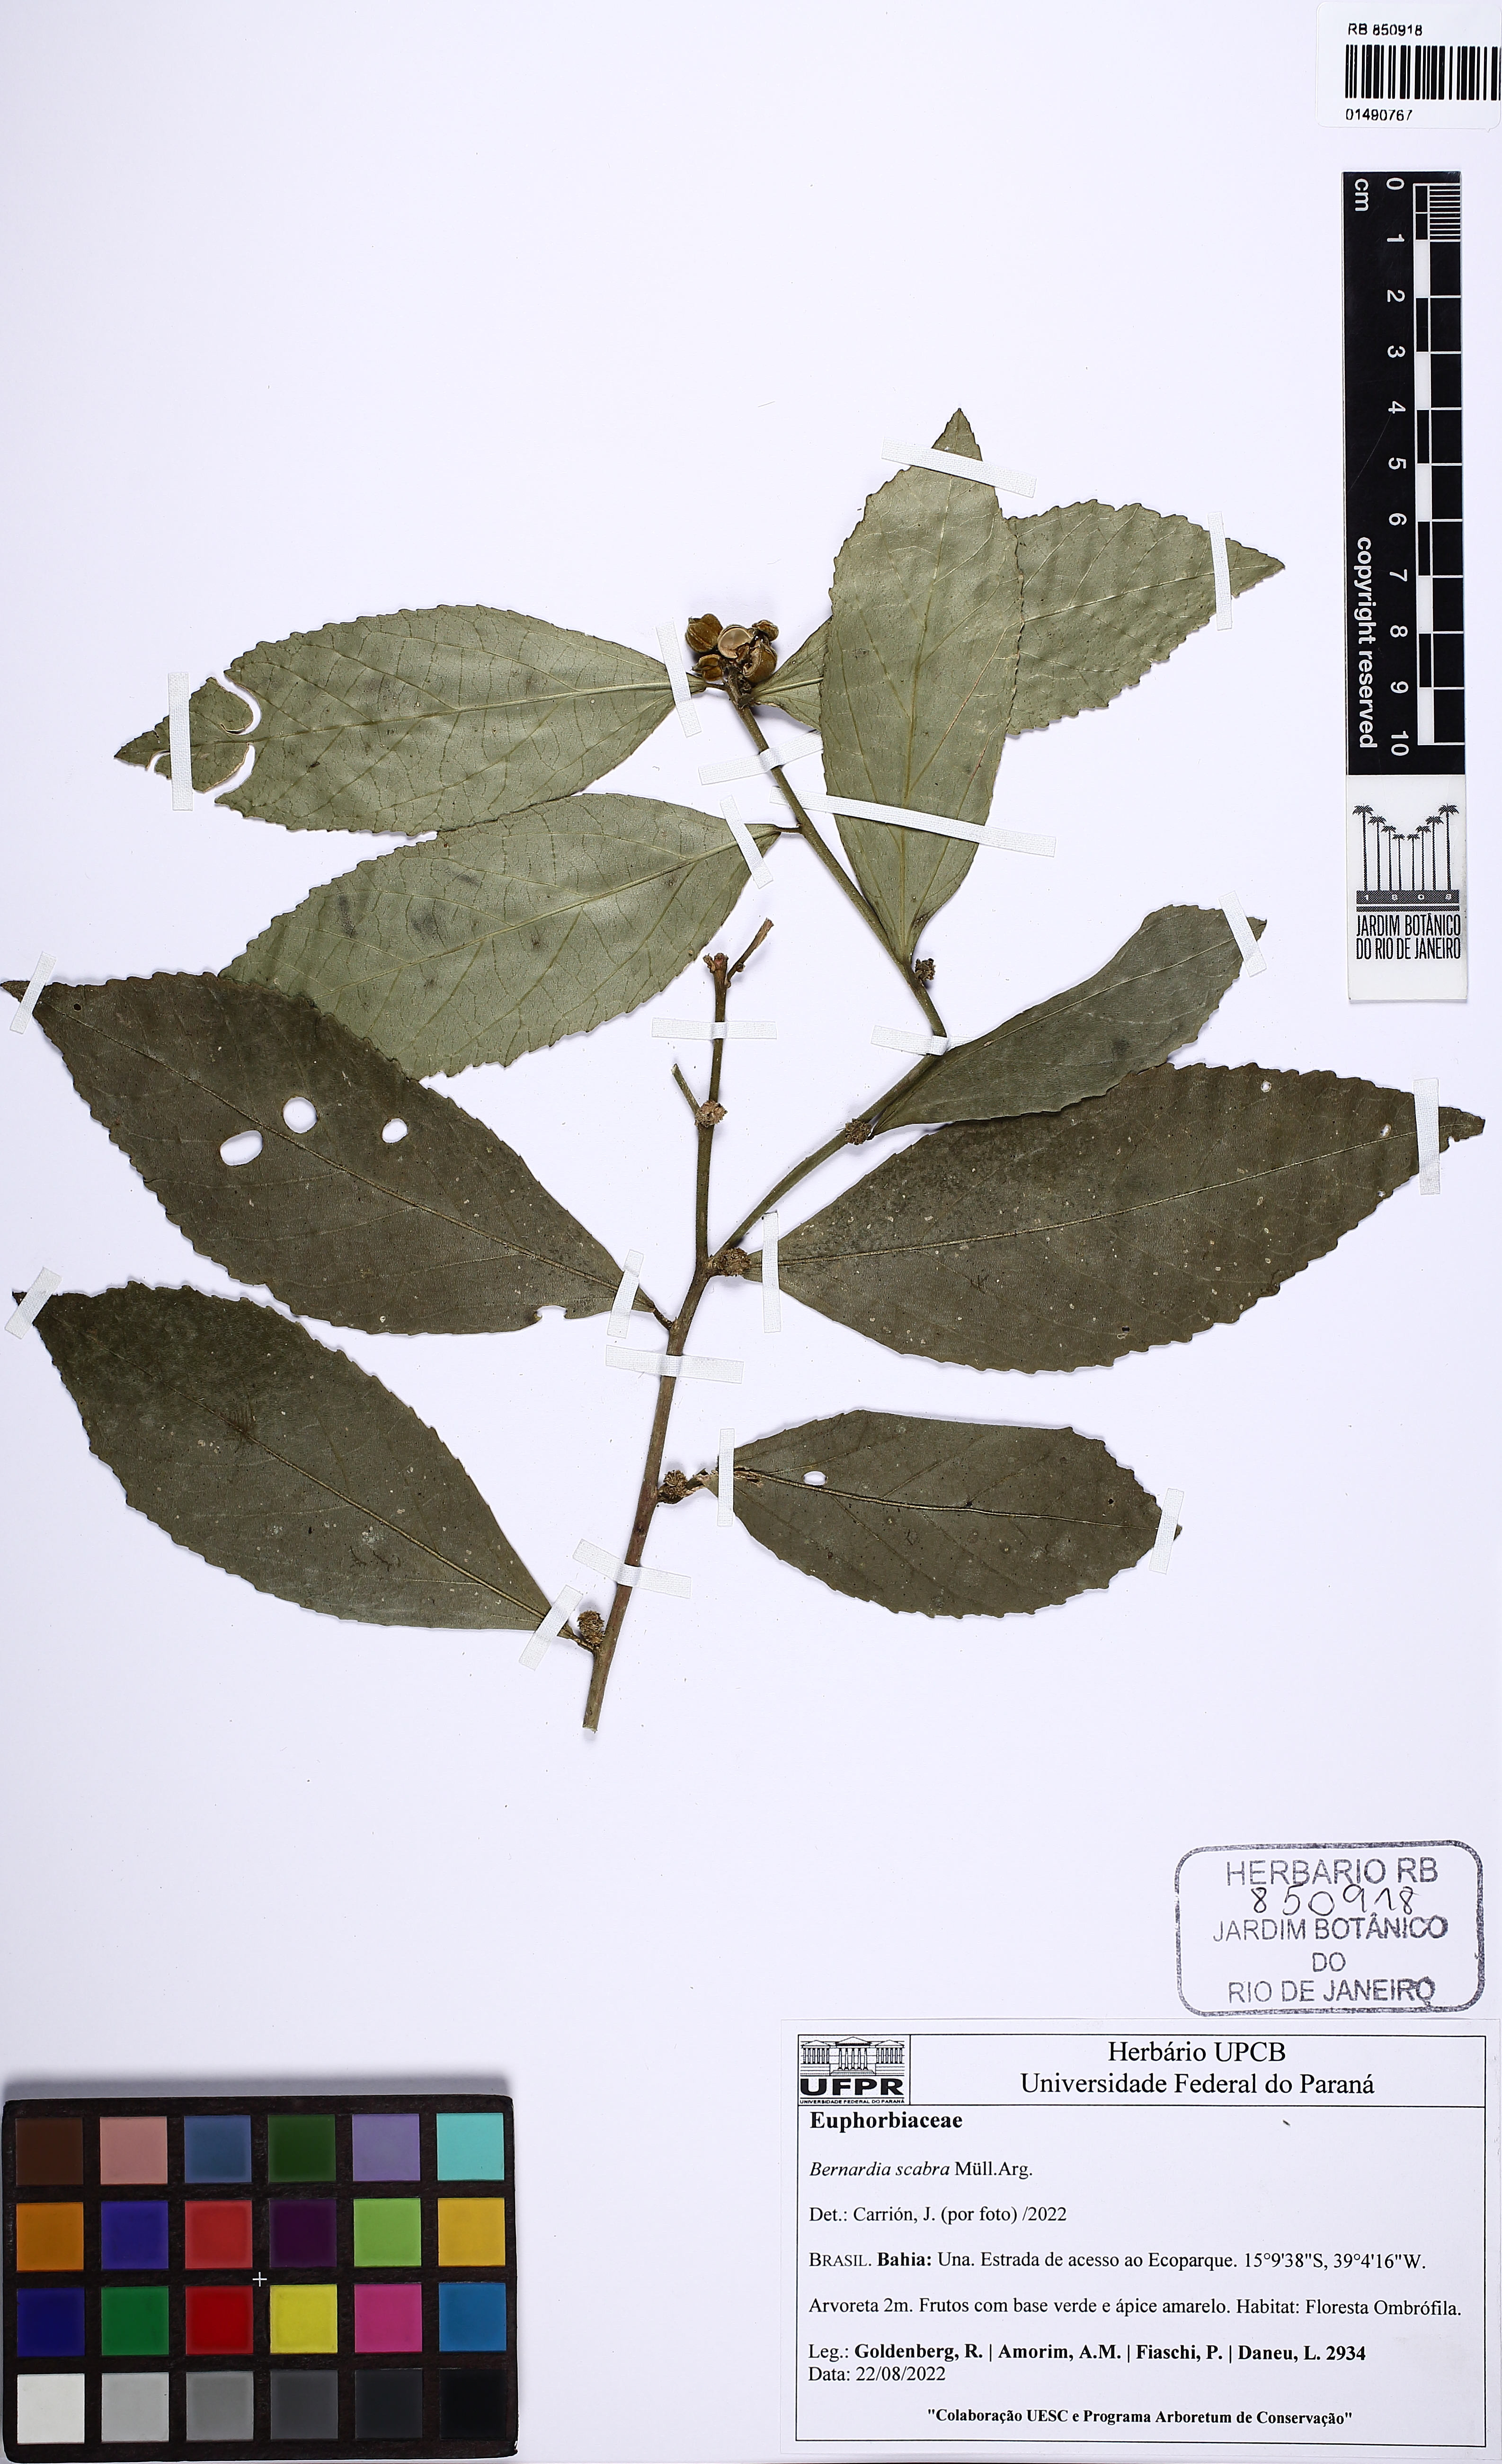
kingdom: Plantae
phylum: Tracheophyta
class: Magnoliopsida
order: Malpighiales
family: Euphorbiaceae
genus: Bernardia
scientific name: Bernardia scabra
